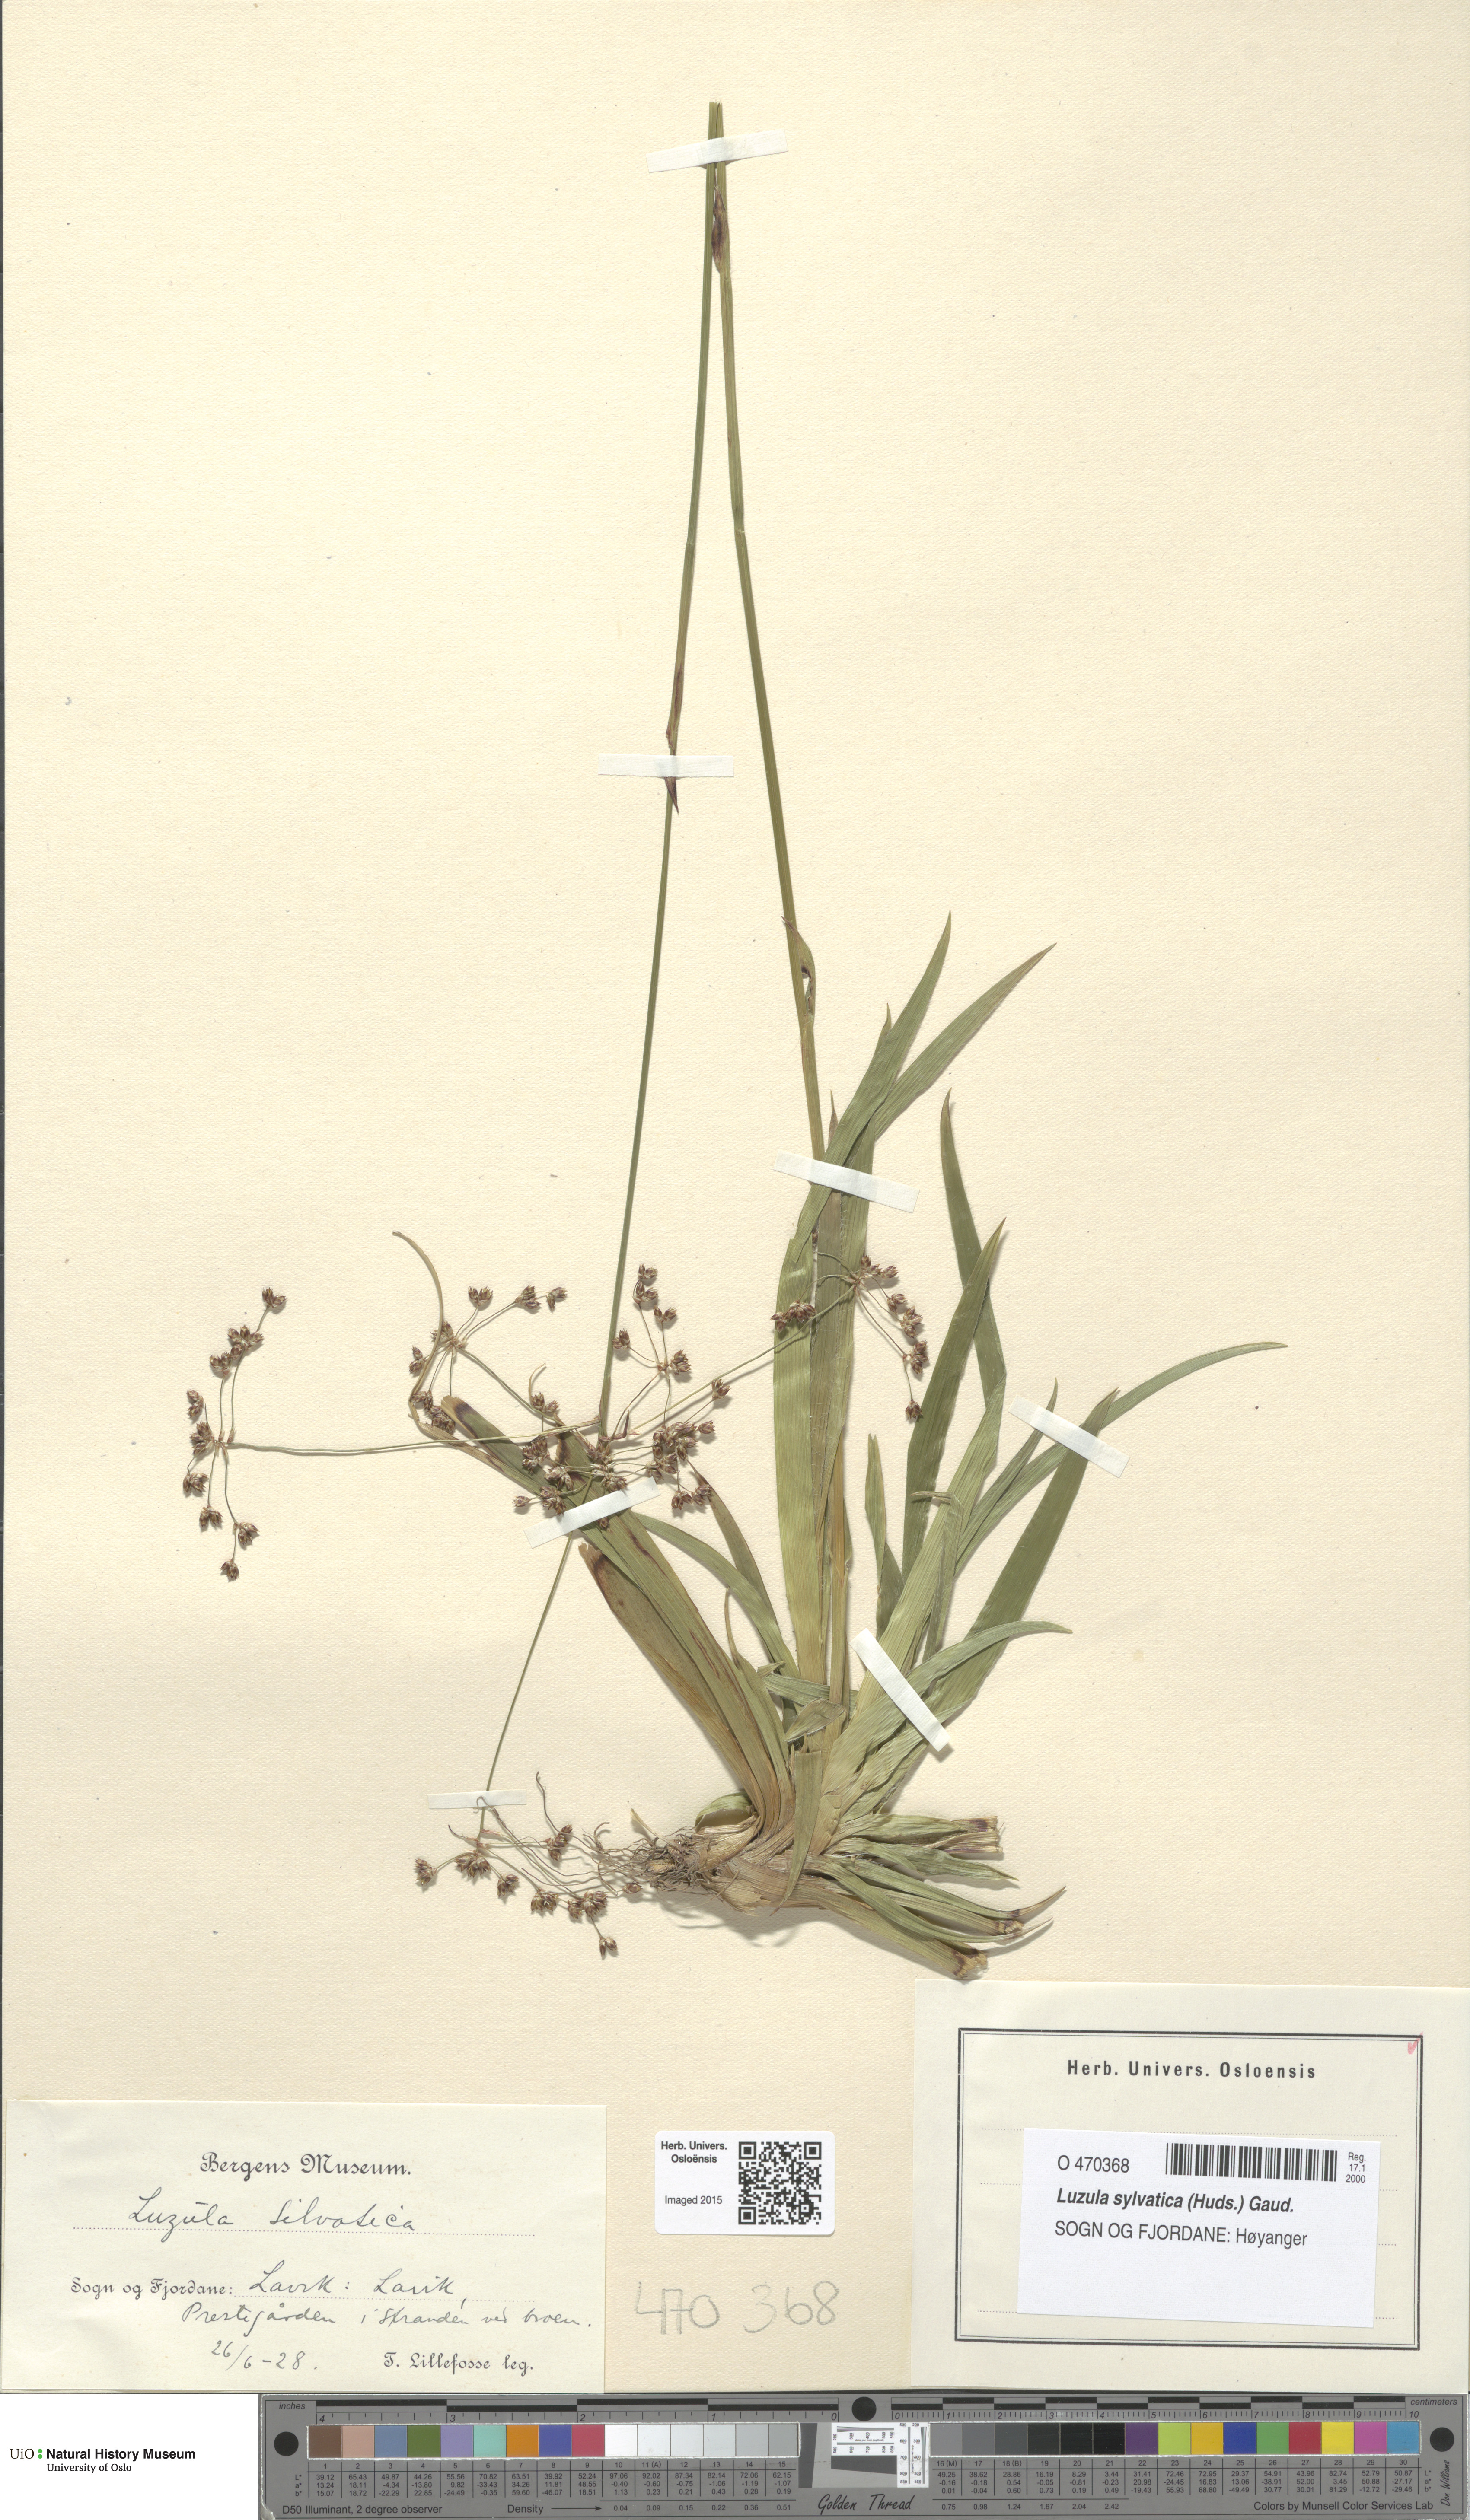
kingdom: Plantae
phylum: Tracheophyta
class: Liliopsida
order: Poales
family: Juncaceae
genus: Luzula
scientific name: Luzula sylvatica
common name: Great wood-rush
